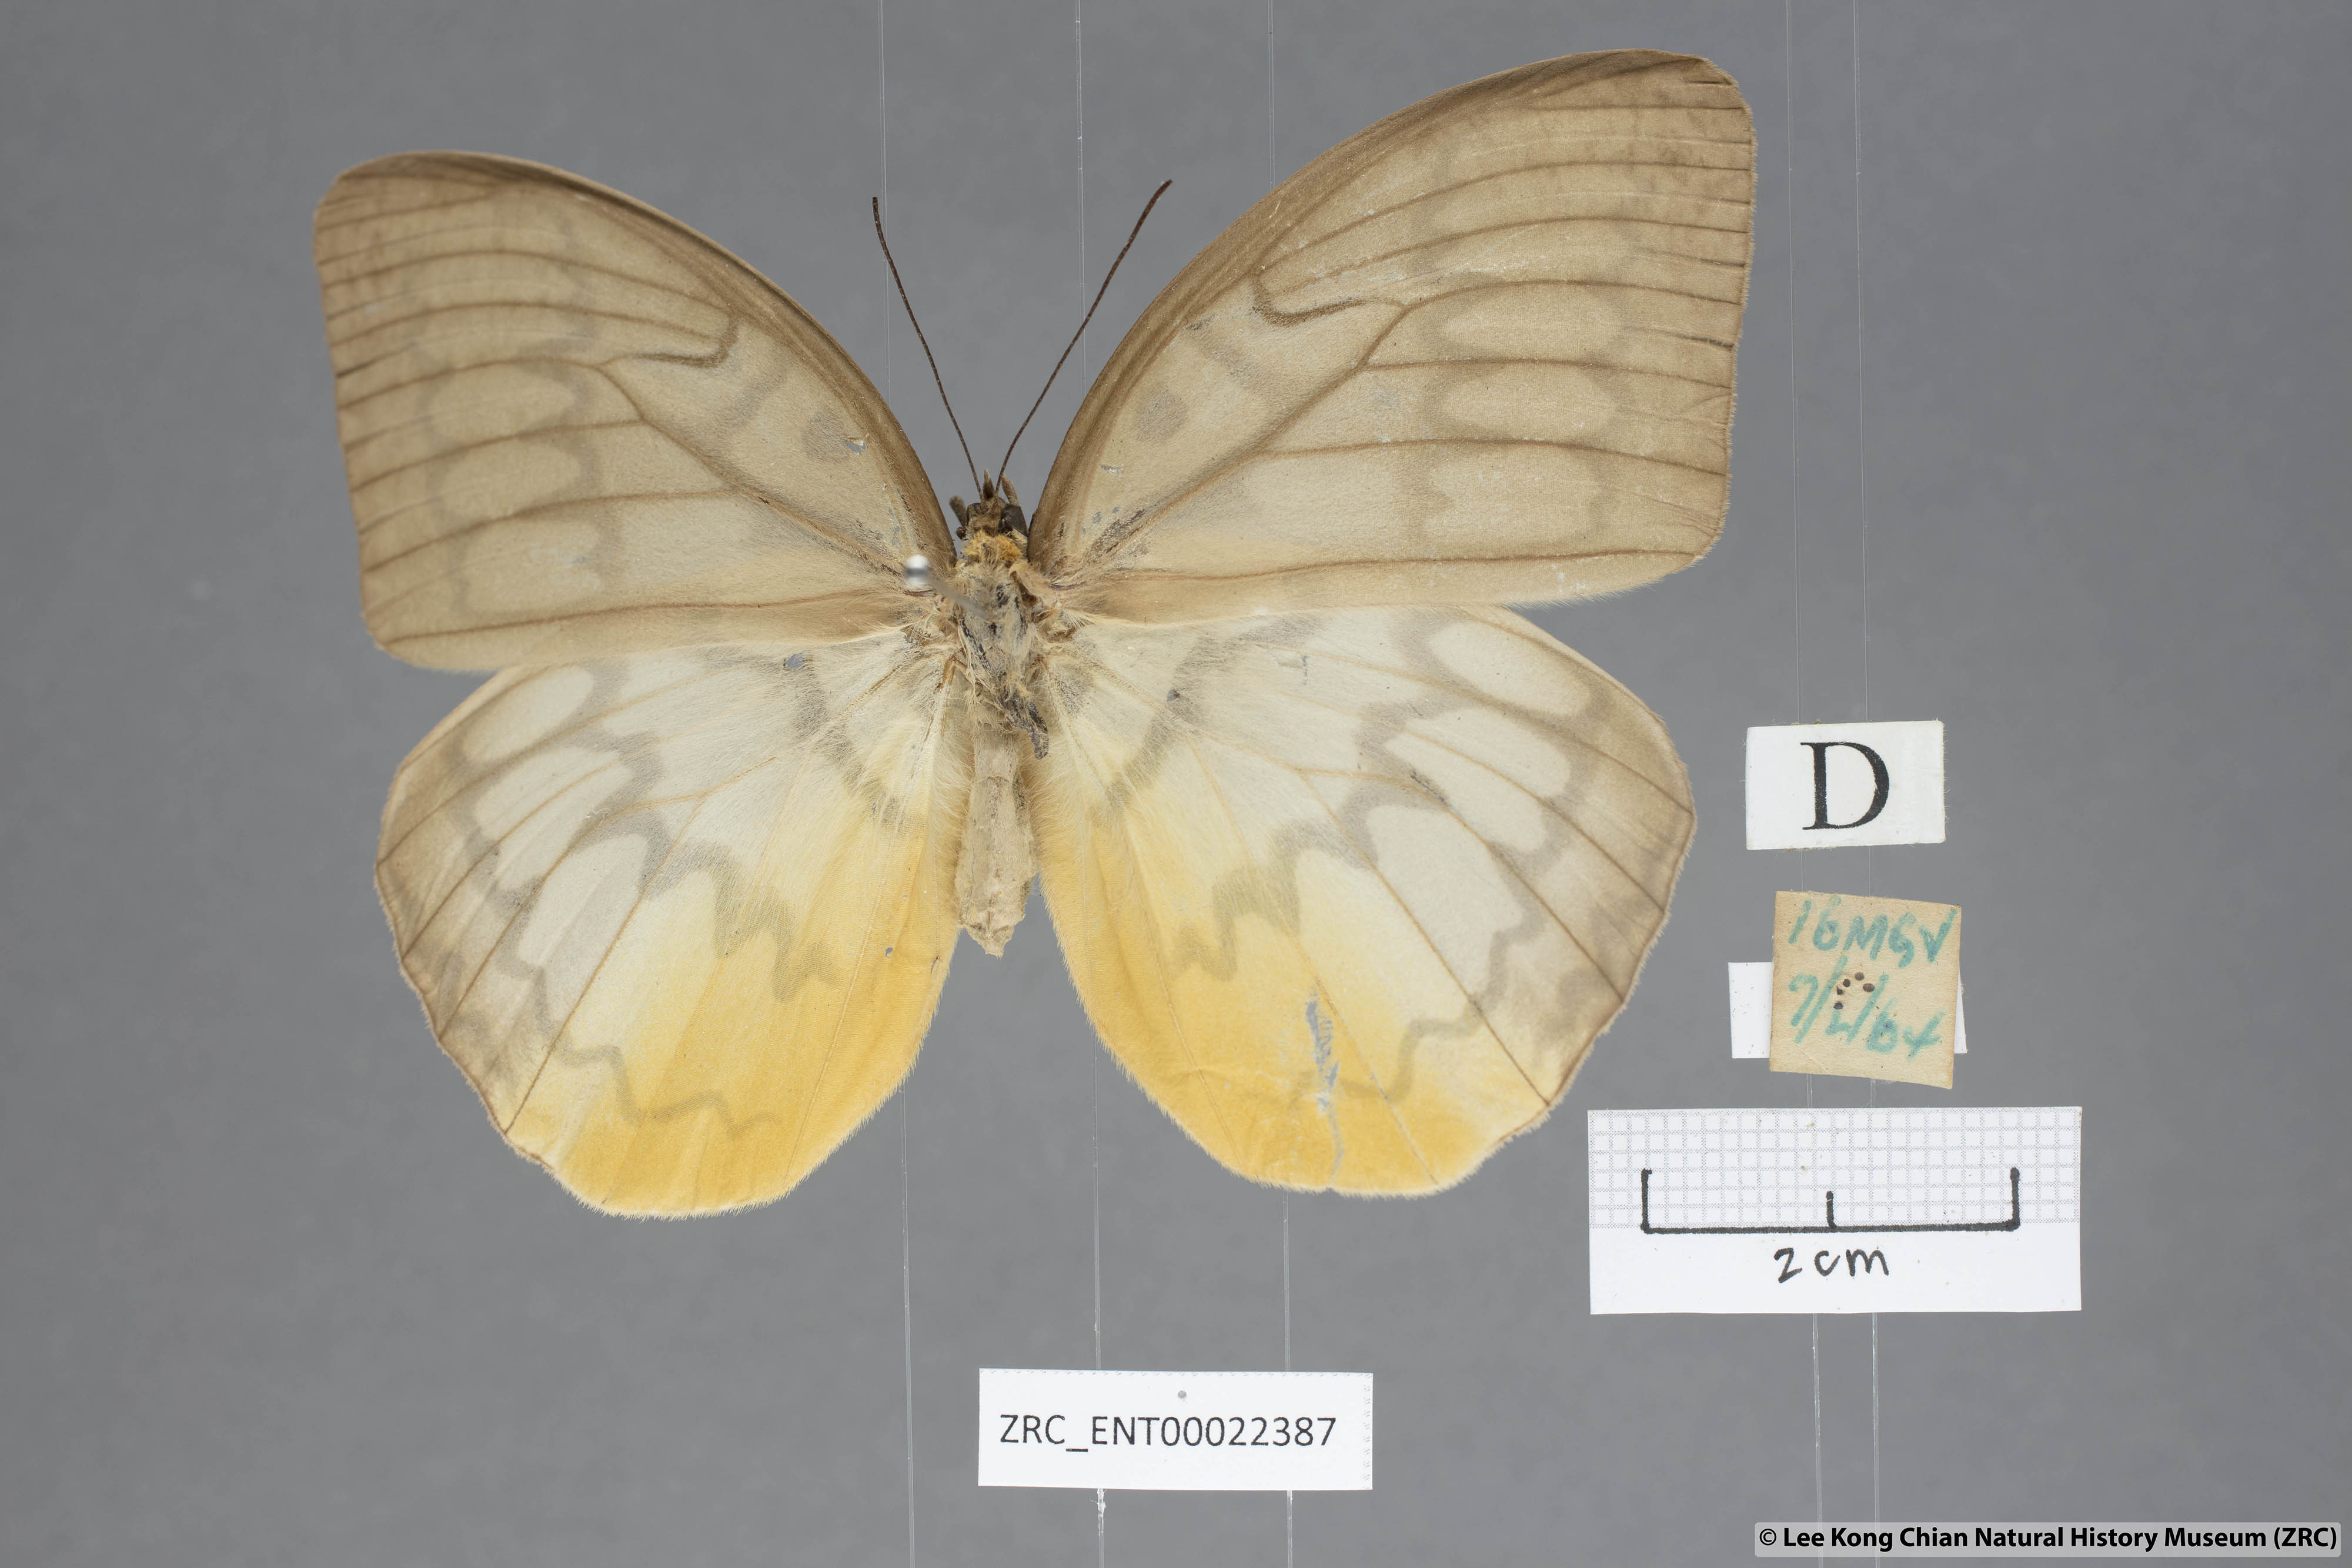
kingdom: Animalia
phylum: Arthropoda
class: Insecta
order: Lepidoptera
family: Nymphalidae
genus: Faunis
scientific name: Faunis Melanocyma faunula
